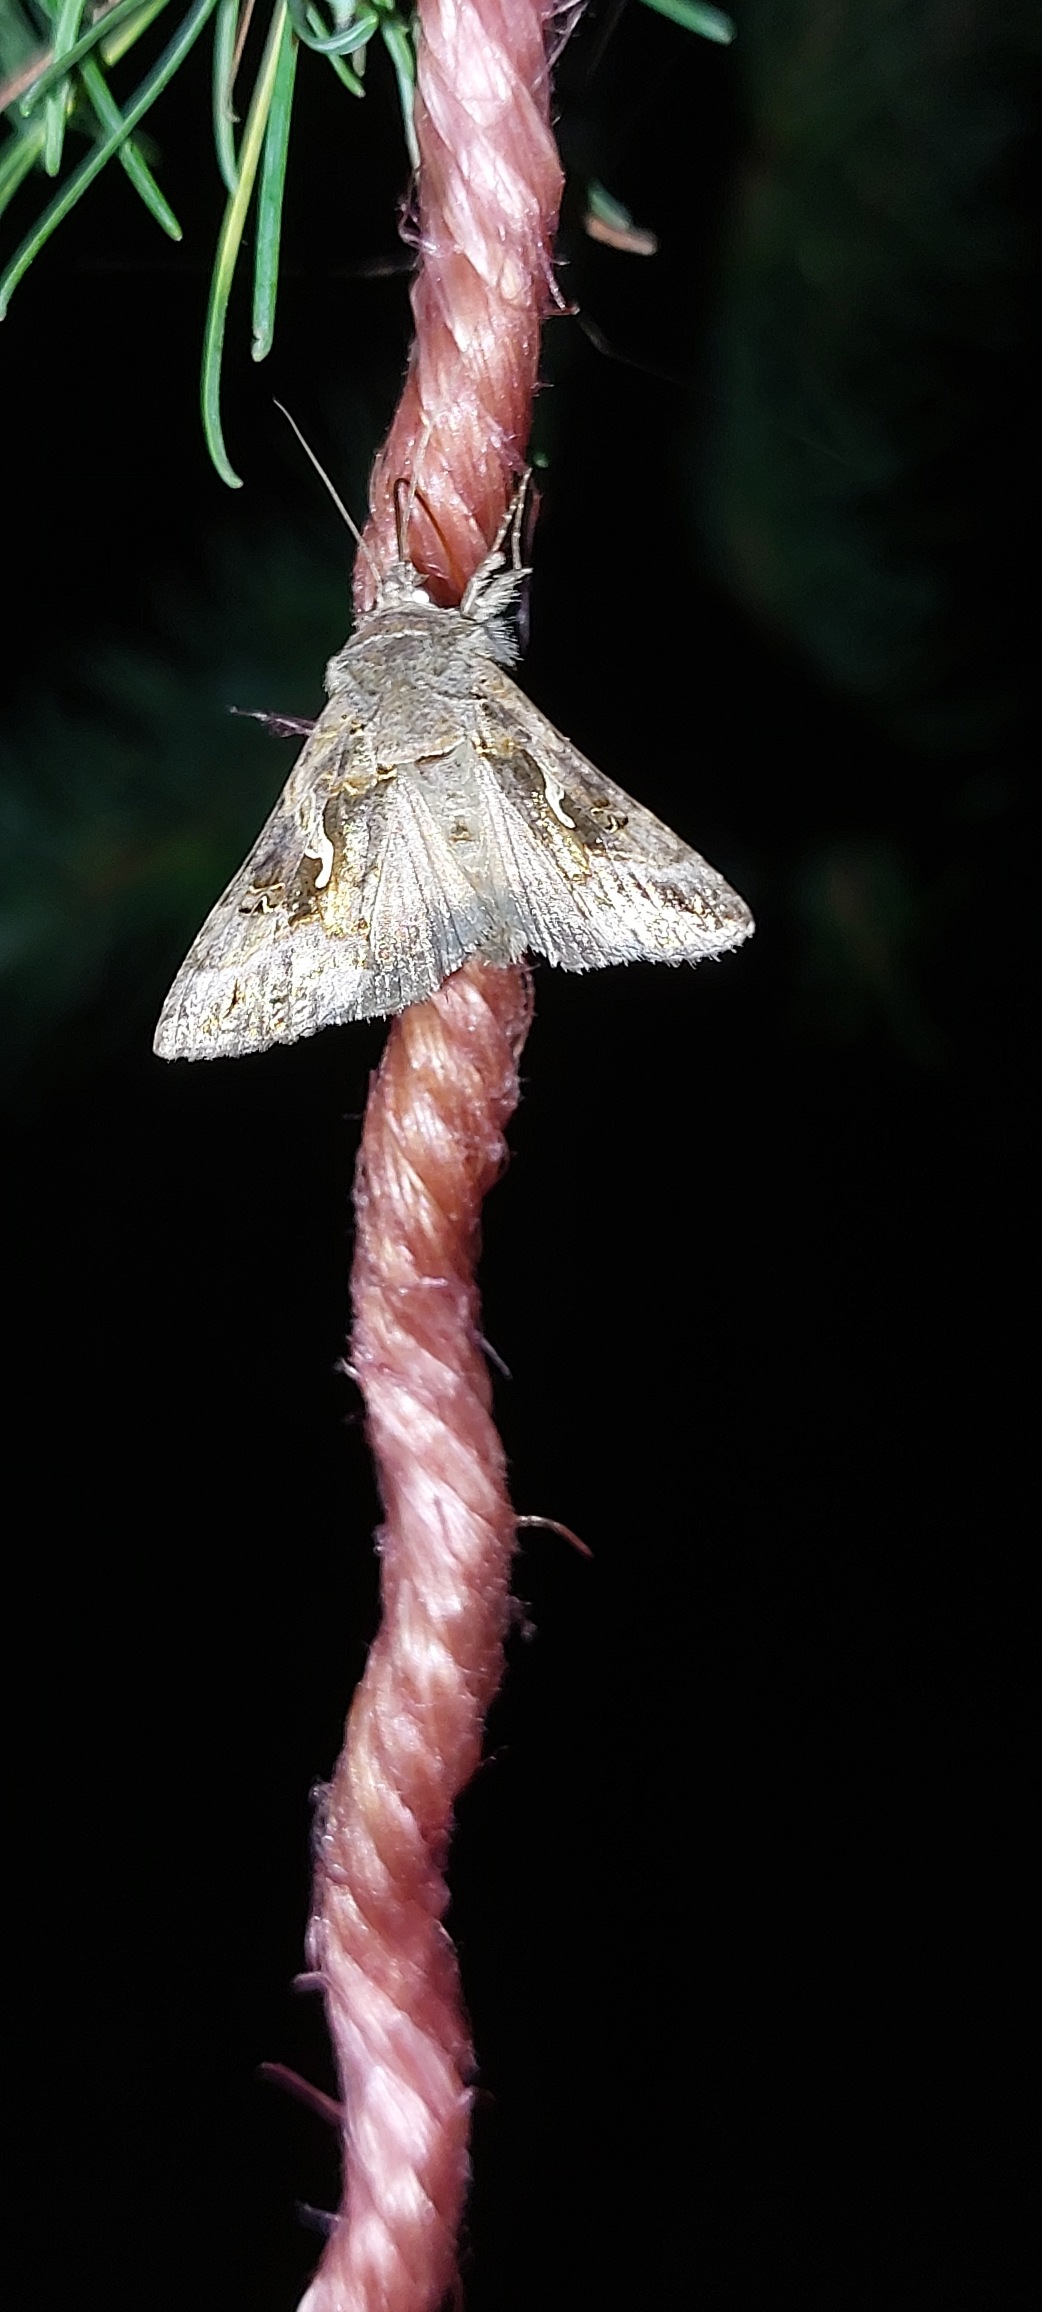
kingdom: Animalia
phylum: Arthropoda
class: Insecta
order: Lepidoptera
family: Noctuidae
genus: Autographa
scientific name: Autographa gamma
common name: Gammaugle
